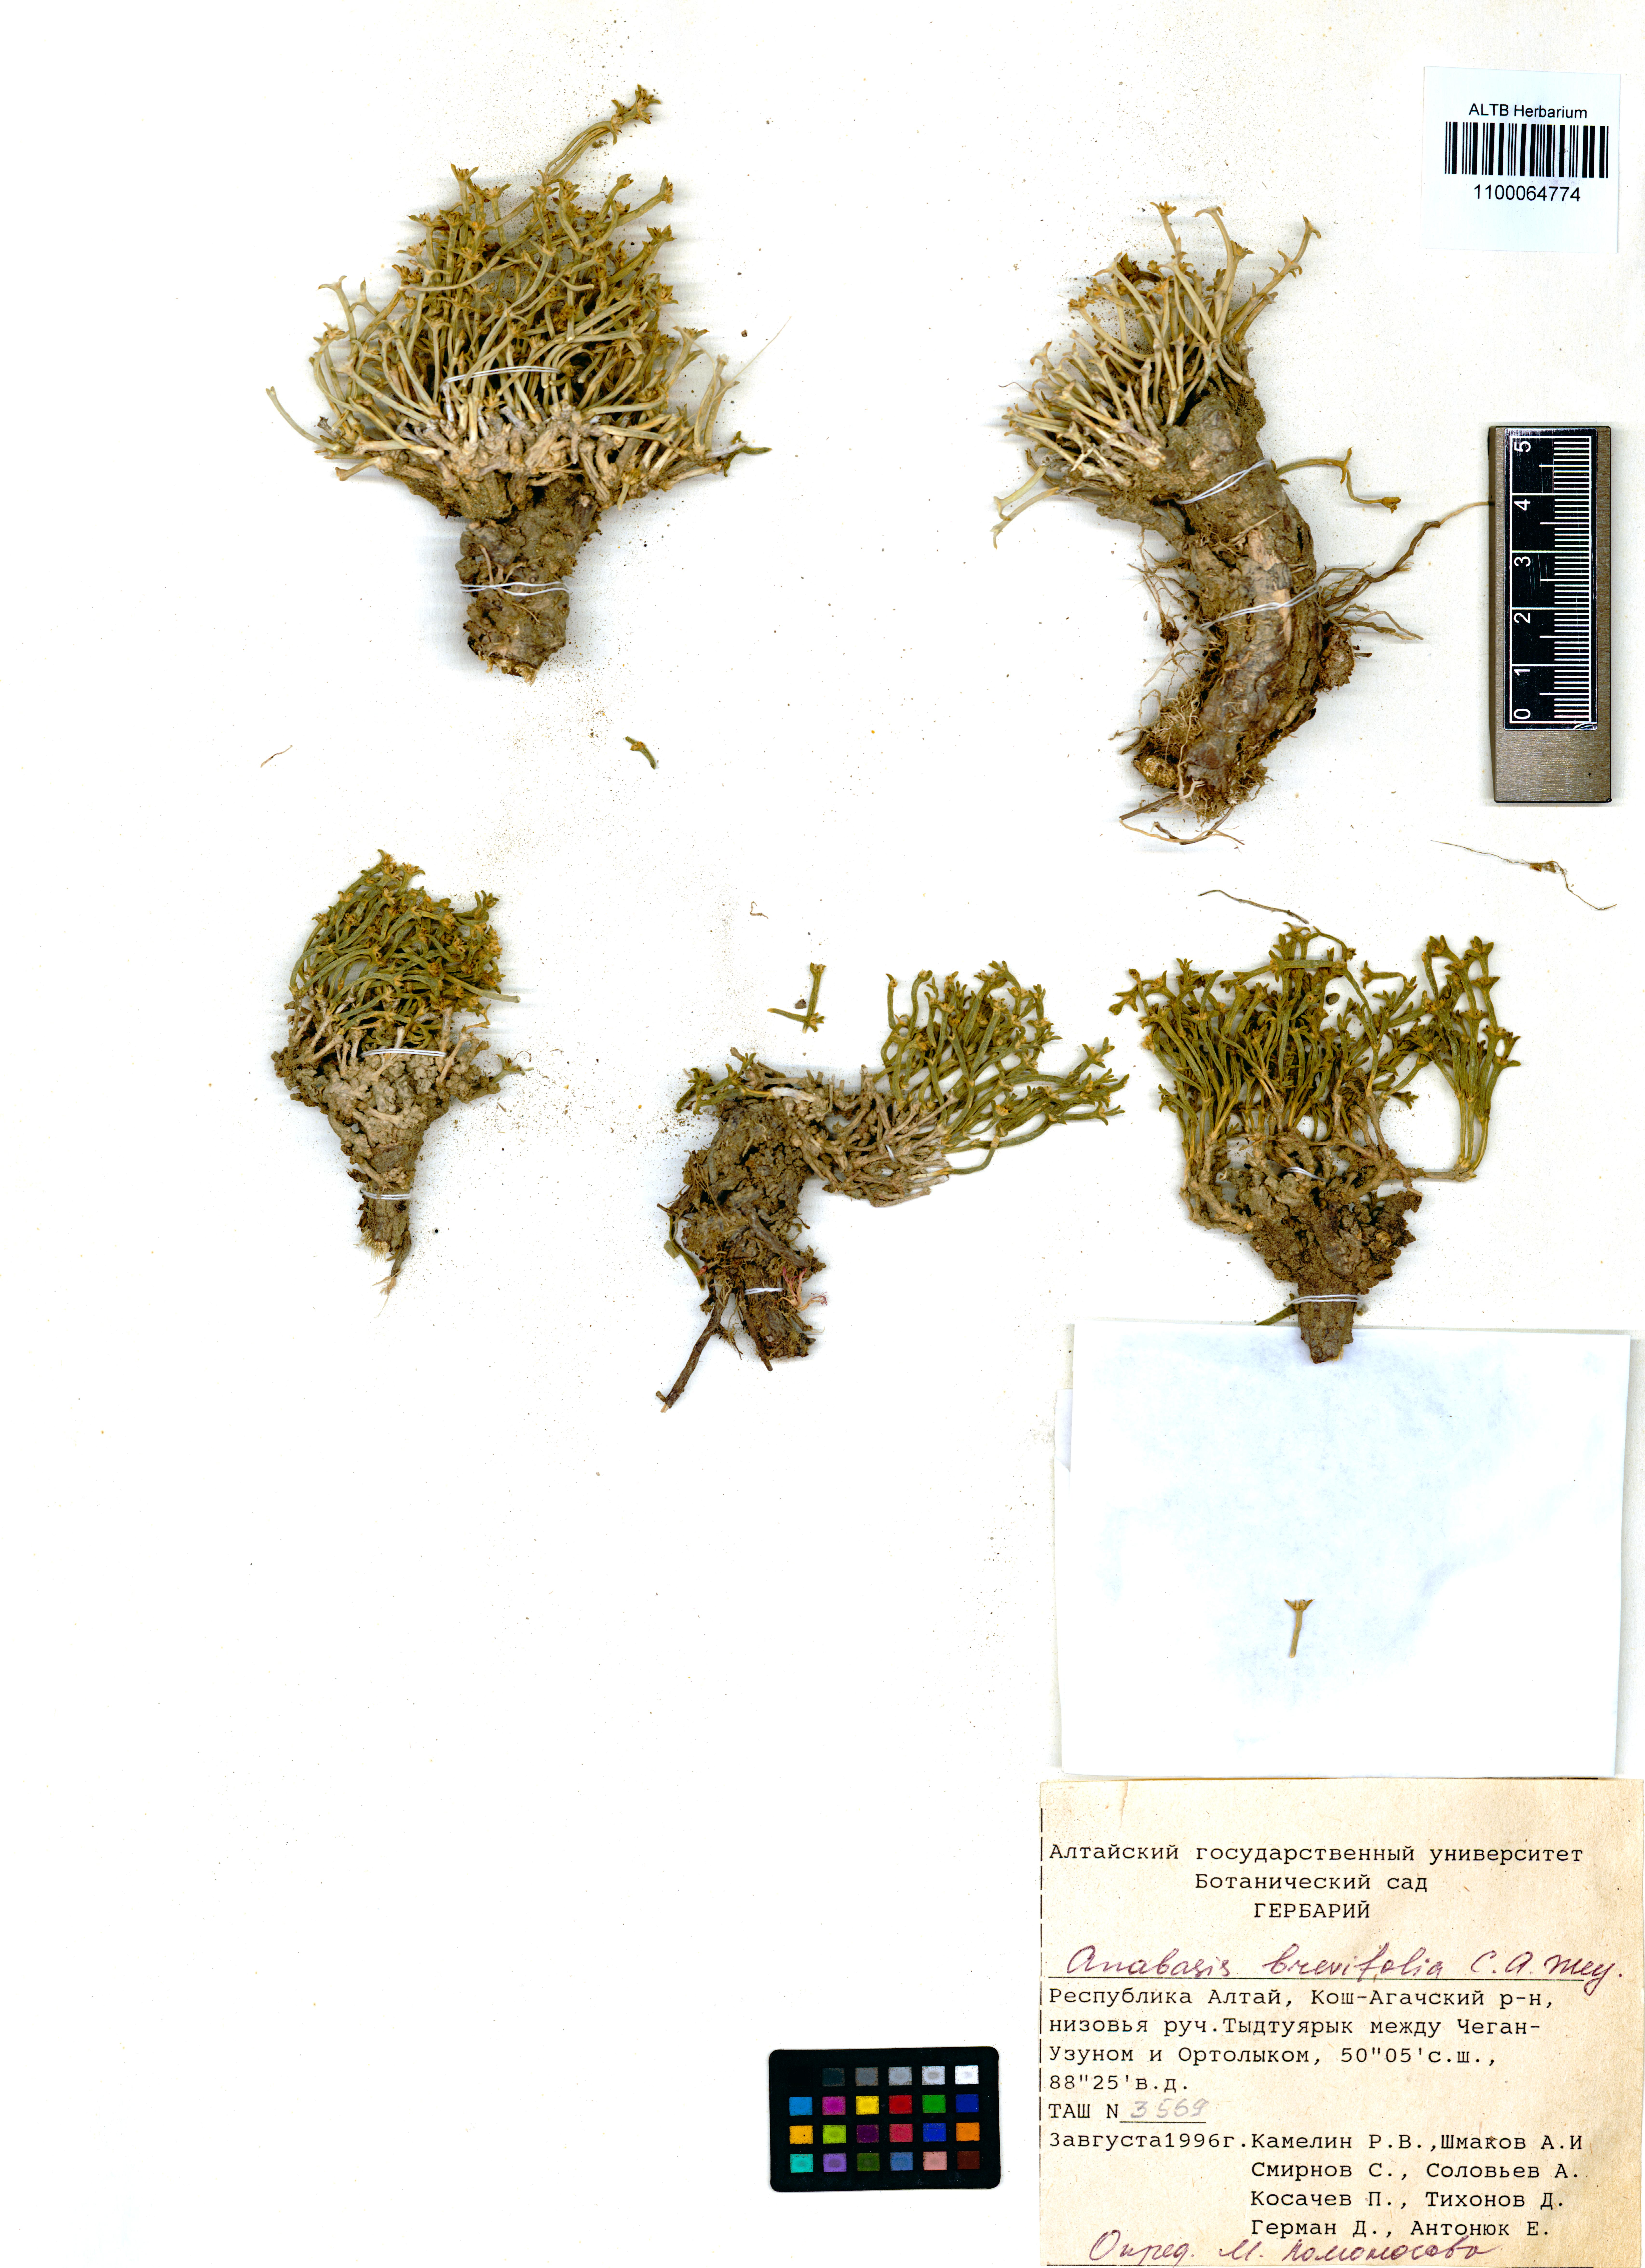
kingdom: Plantae
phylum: Tracheophyta
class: Magnoliopsida
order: Caryophyllales
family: Amaranthaceae
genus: Anabasis
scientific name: Anabasis brevifolia
